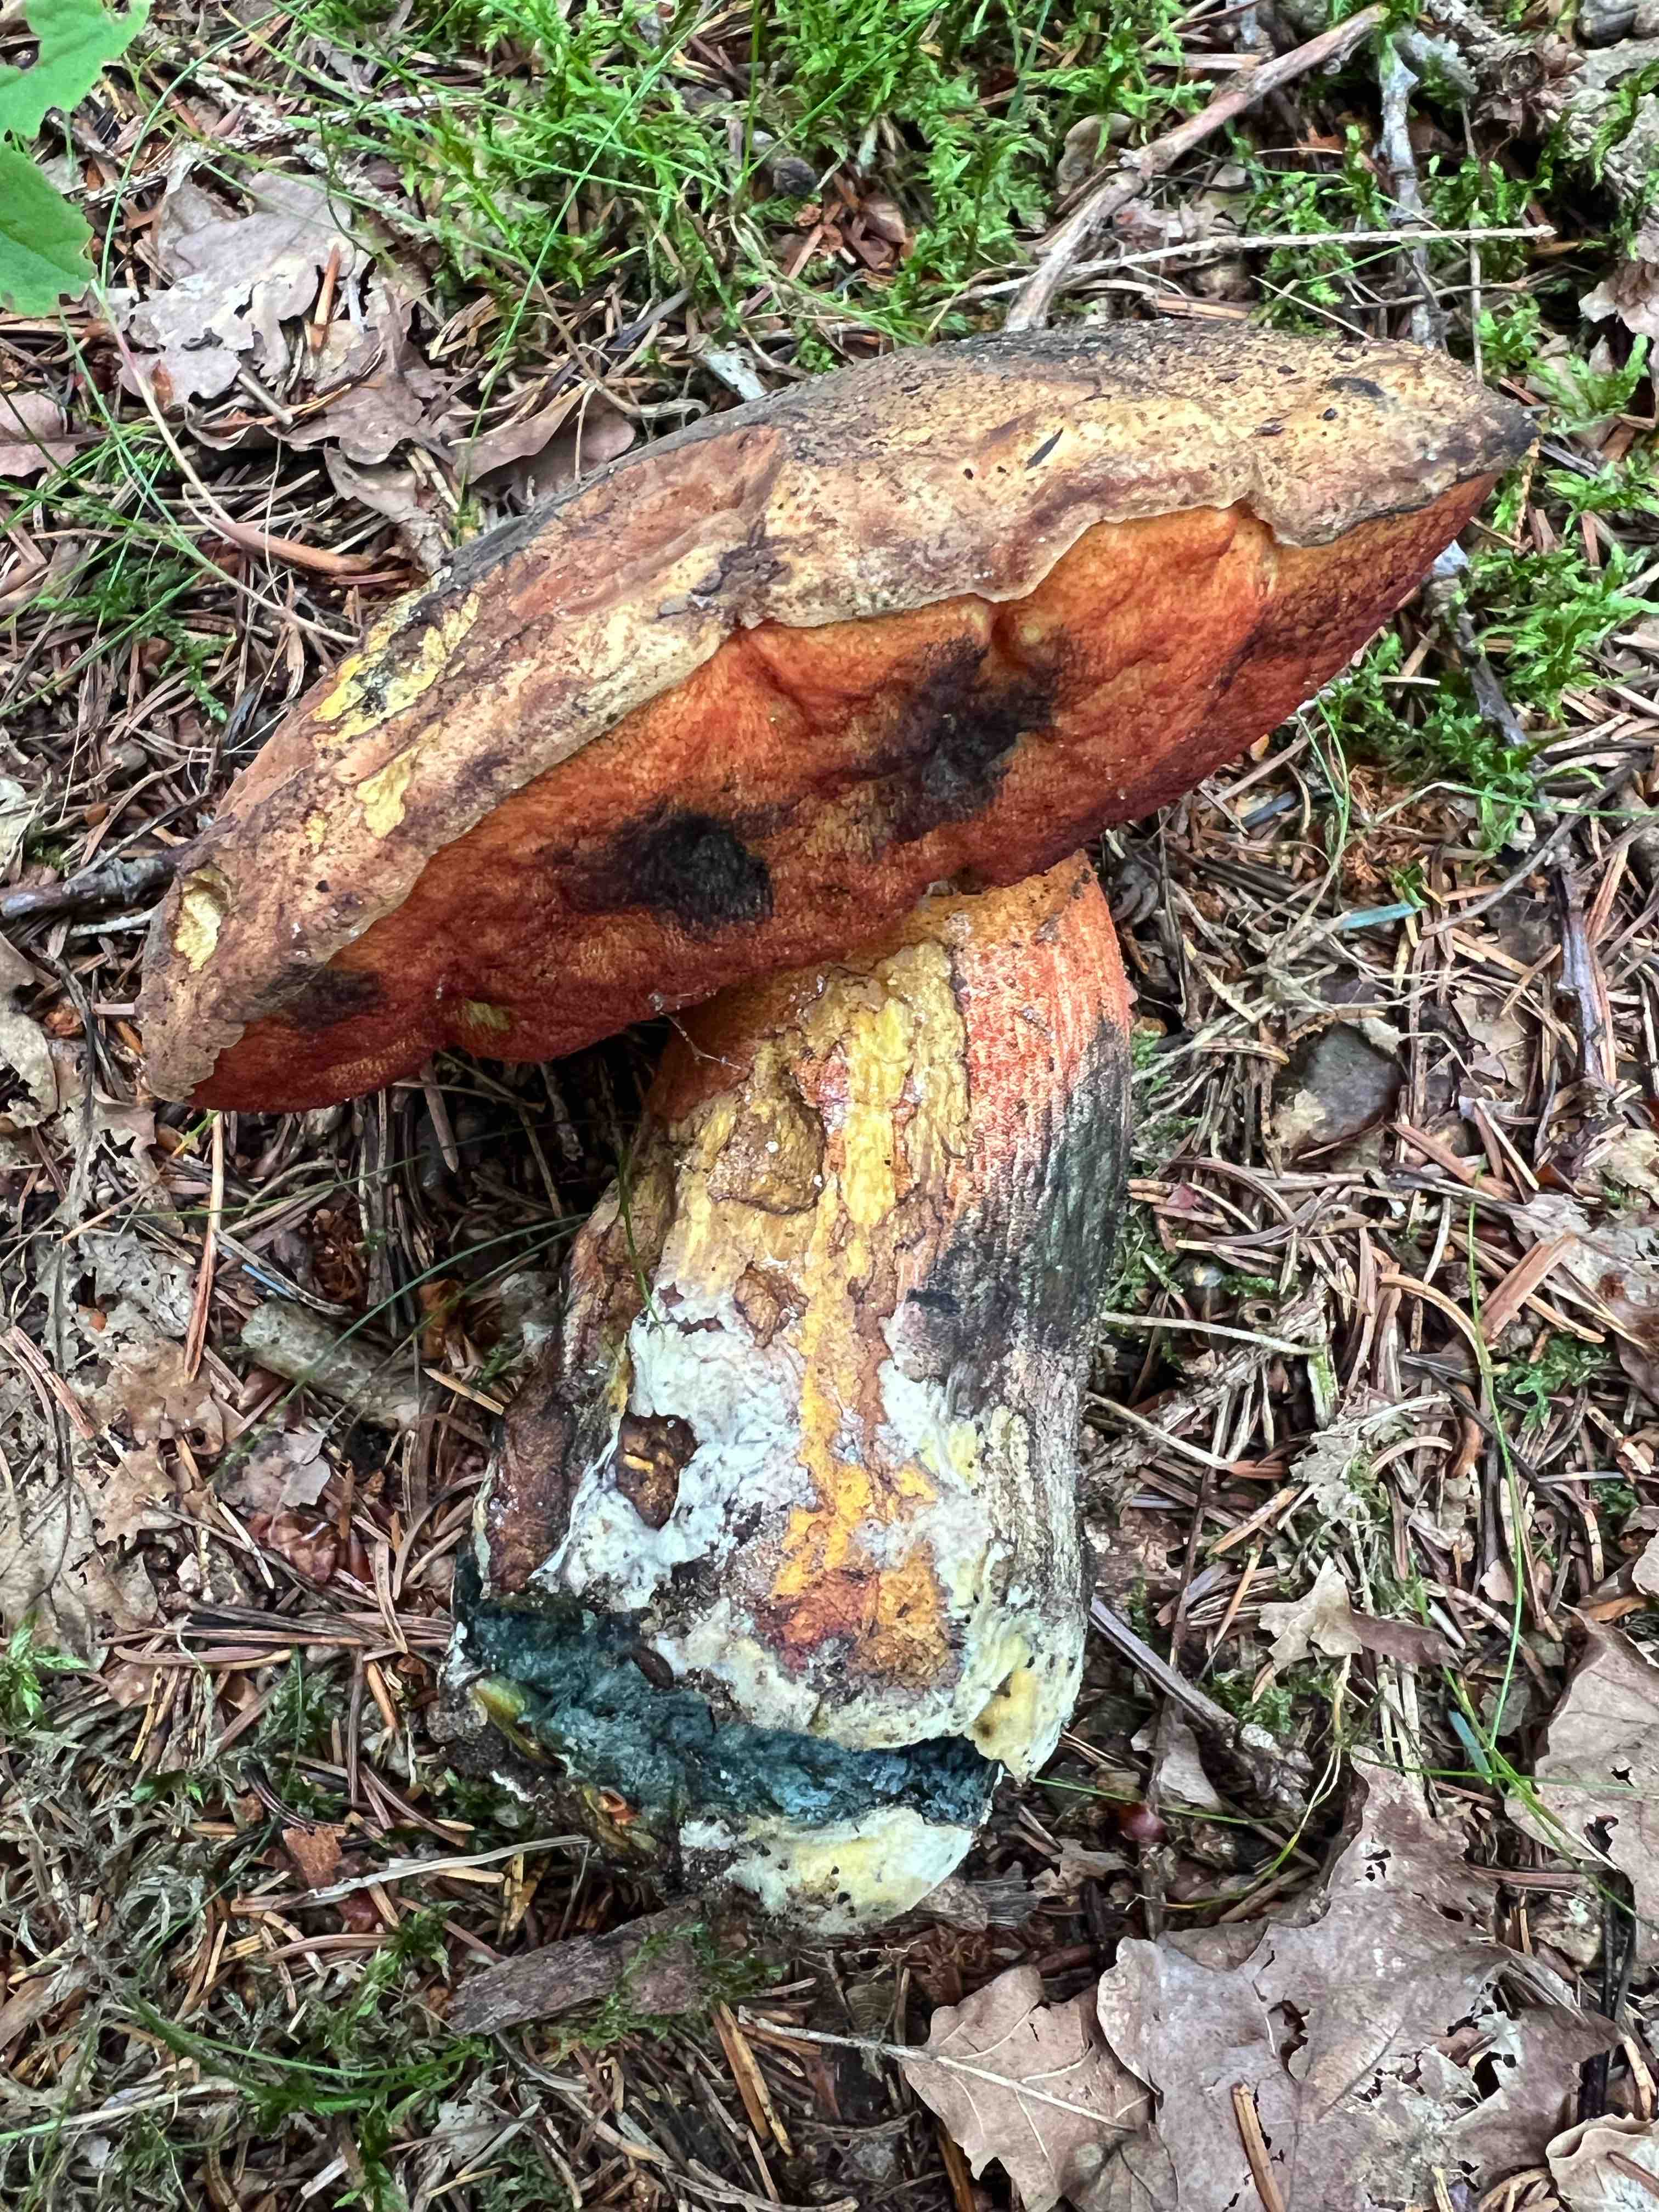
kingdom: Fungi
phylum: Basidiomycota
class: Agaricomycetes
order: Boletales
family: Boletaceae
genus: Neoboletus
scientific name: Neoboletus erythropus
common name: punktstokket indigorørhat
